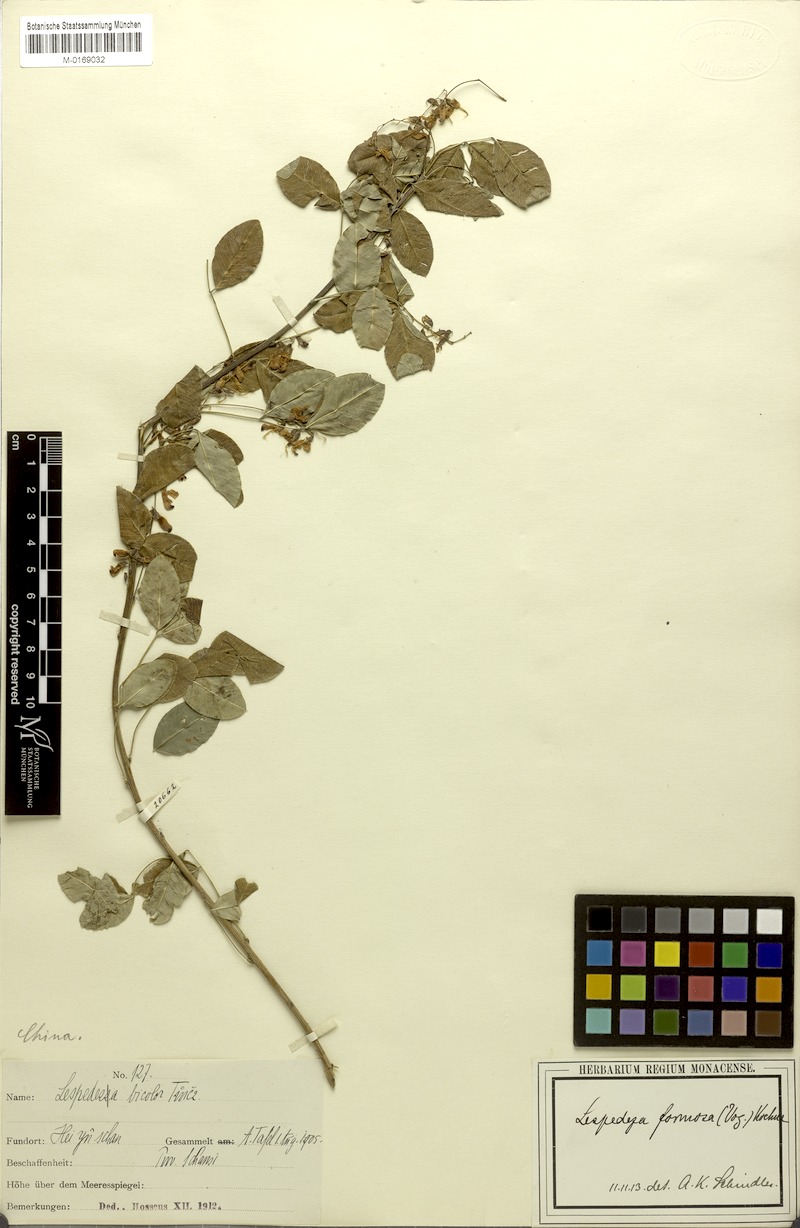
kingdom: Plantae
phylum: Tracheophyta
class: Magnoliopsida
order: Fabales
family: Fabaceae
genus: Lespedeza
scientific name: Lespedeza thunbergii
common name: Thunberg's lespedeza
